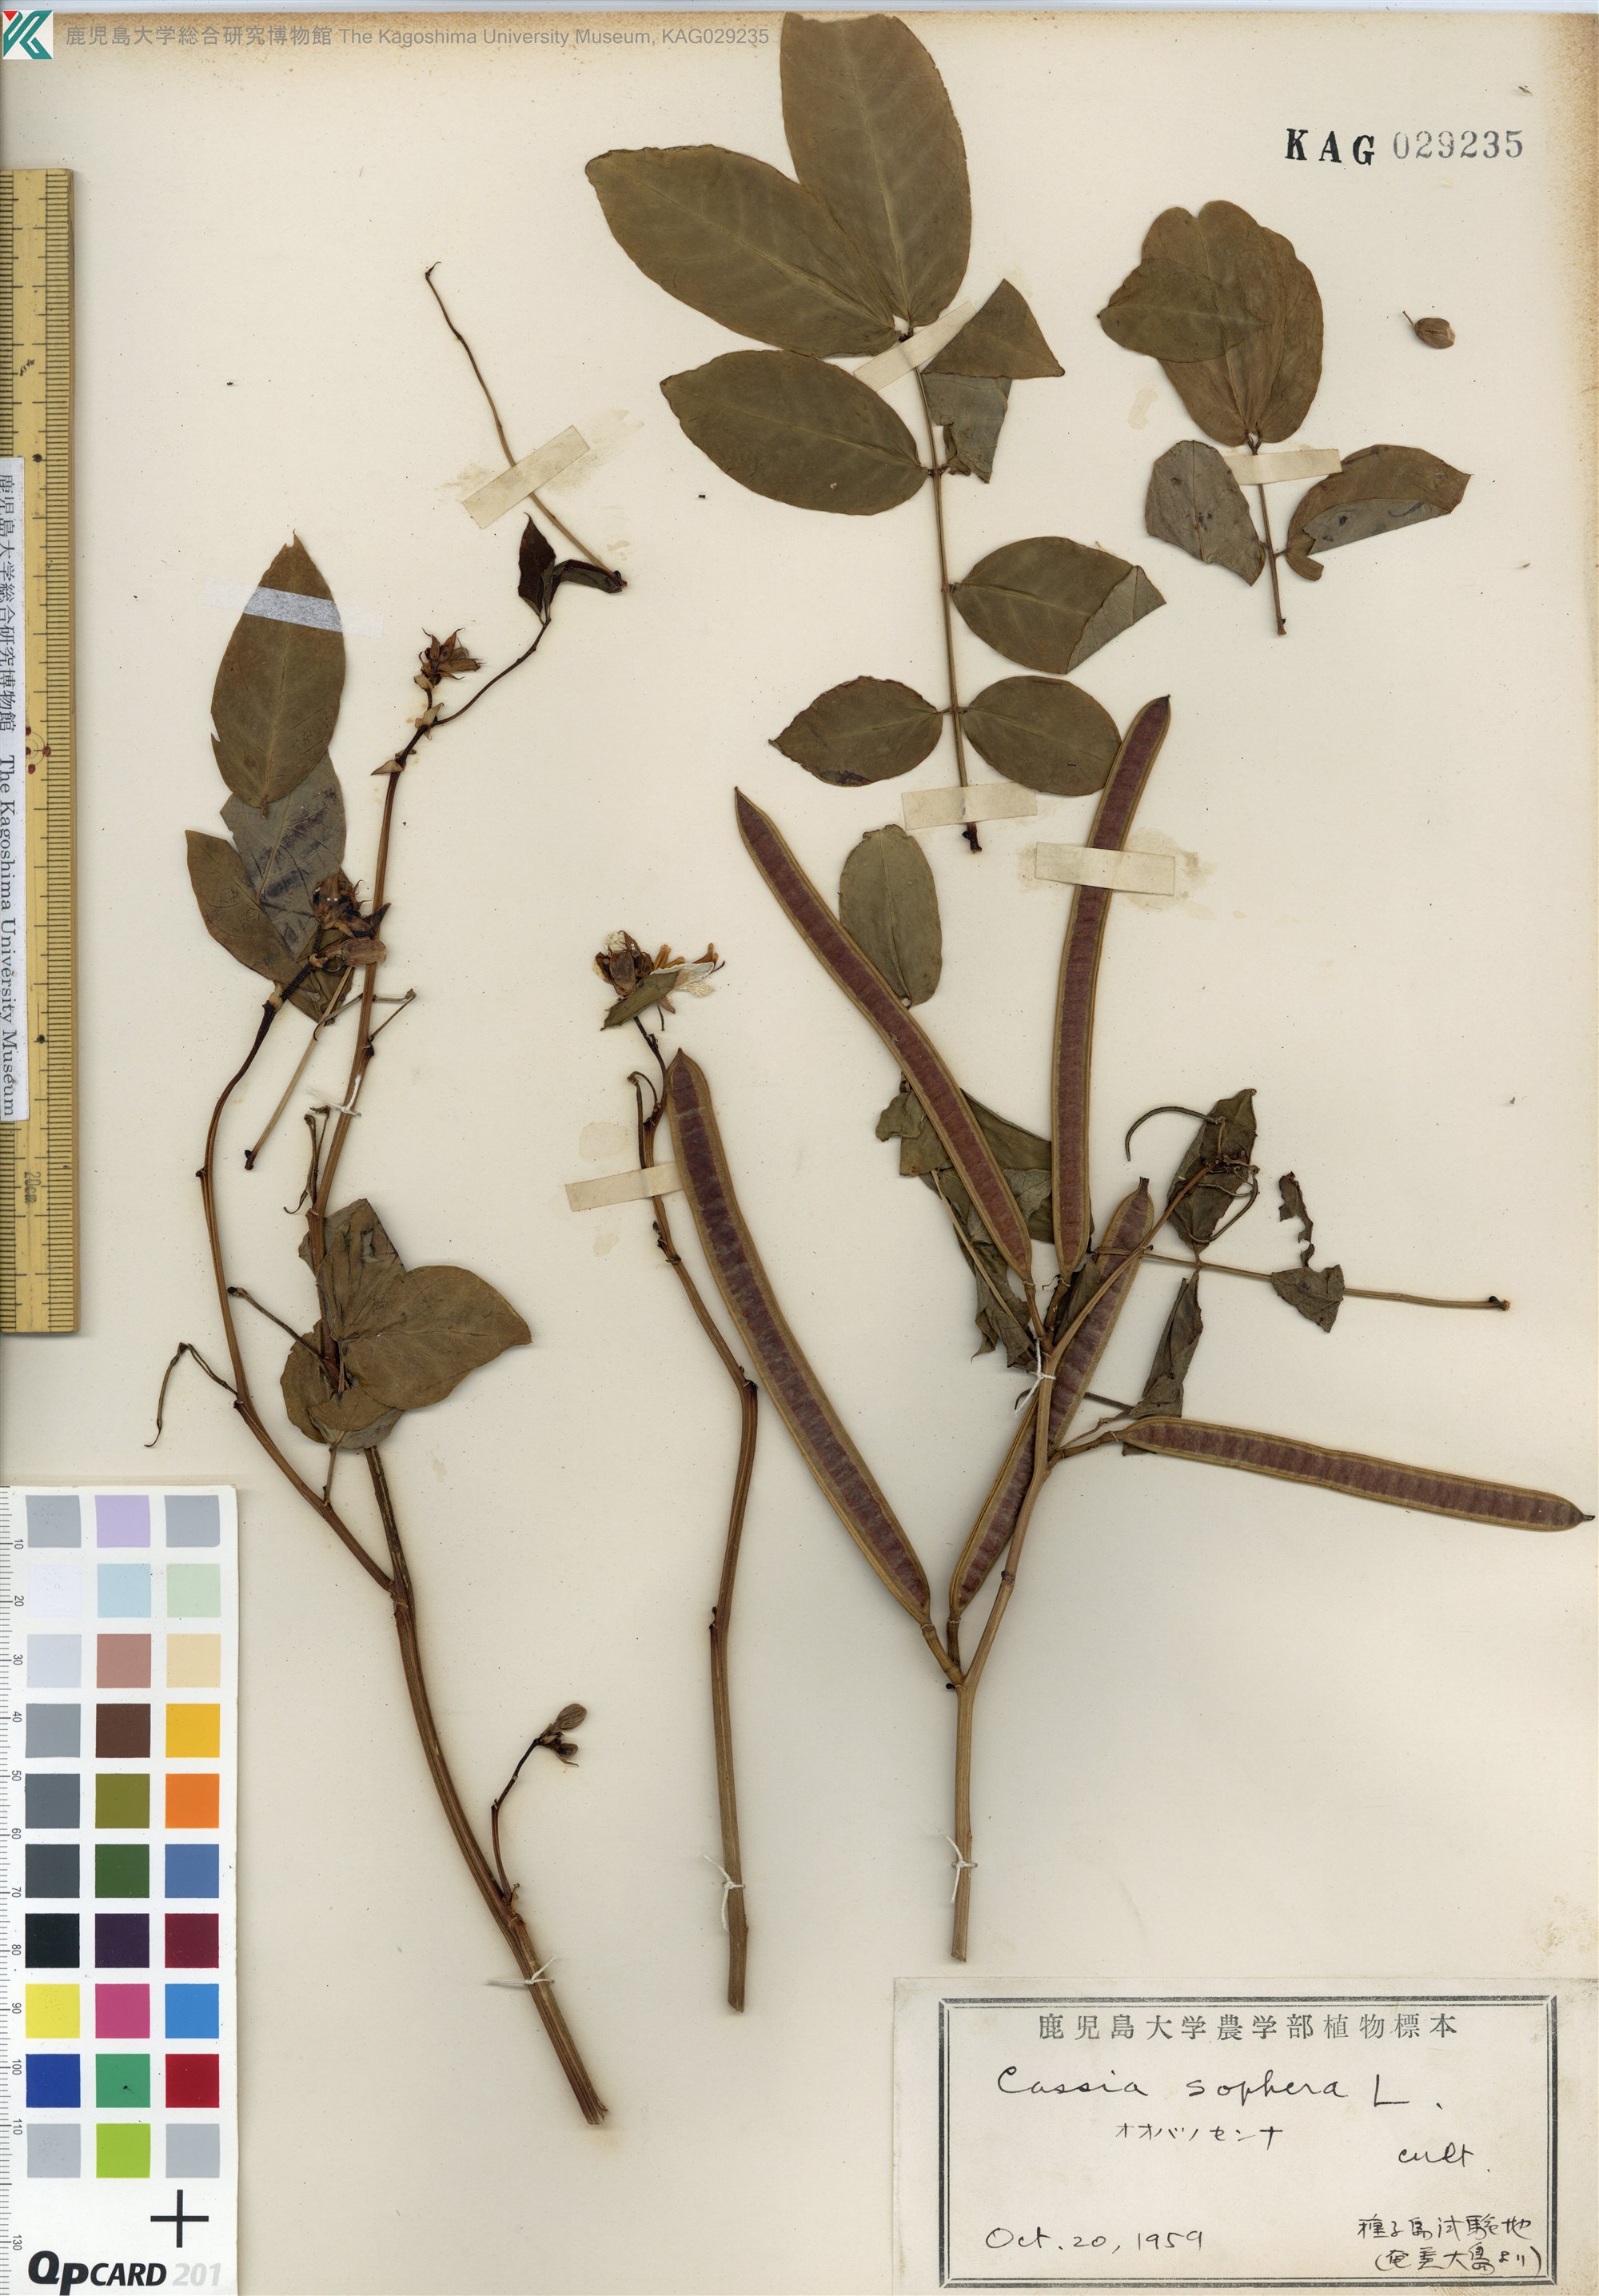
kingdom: Plantae
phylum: Tracheophyta
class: Magnoliopsida
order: Fabales
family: Fabaceae
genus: Senna
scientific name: Senna sophera
